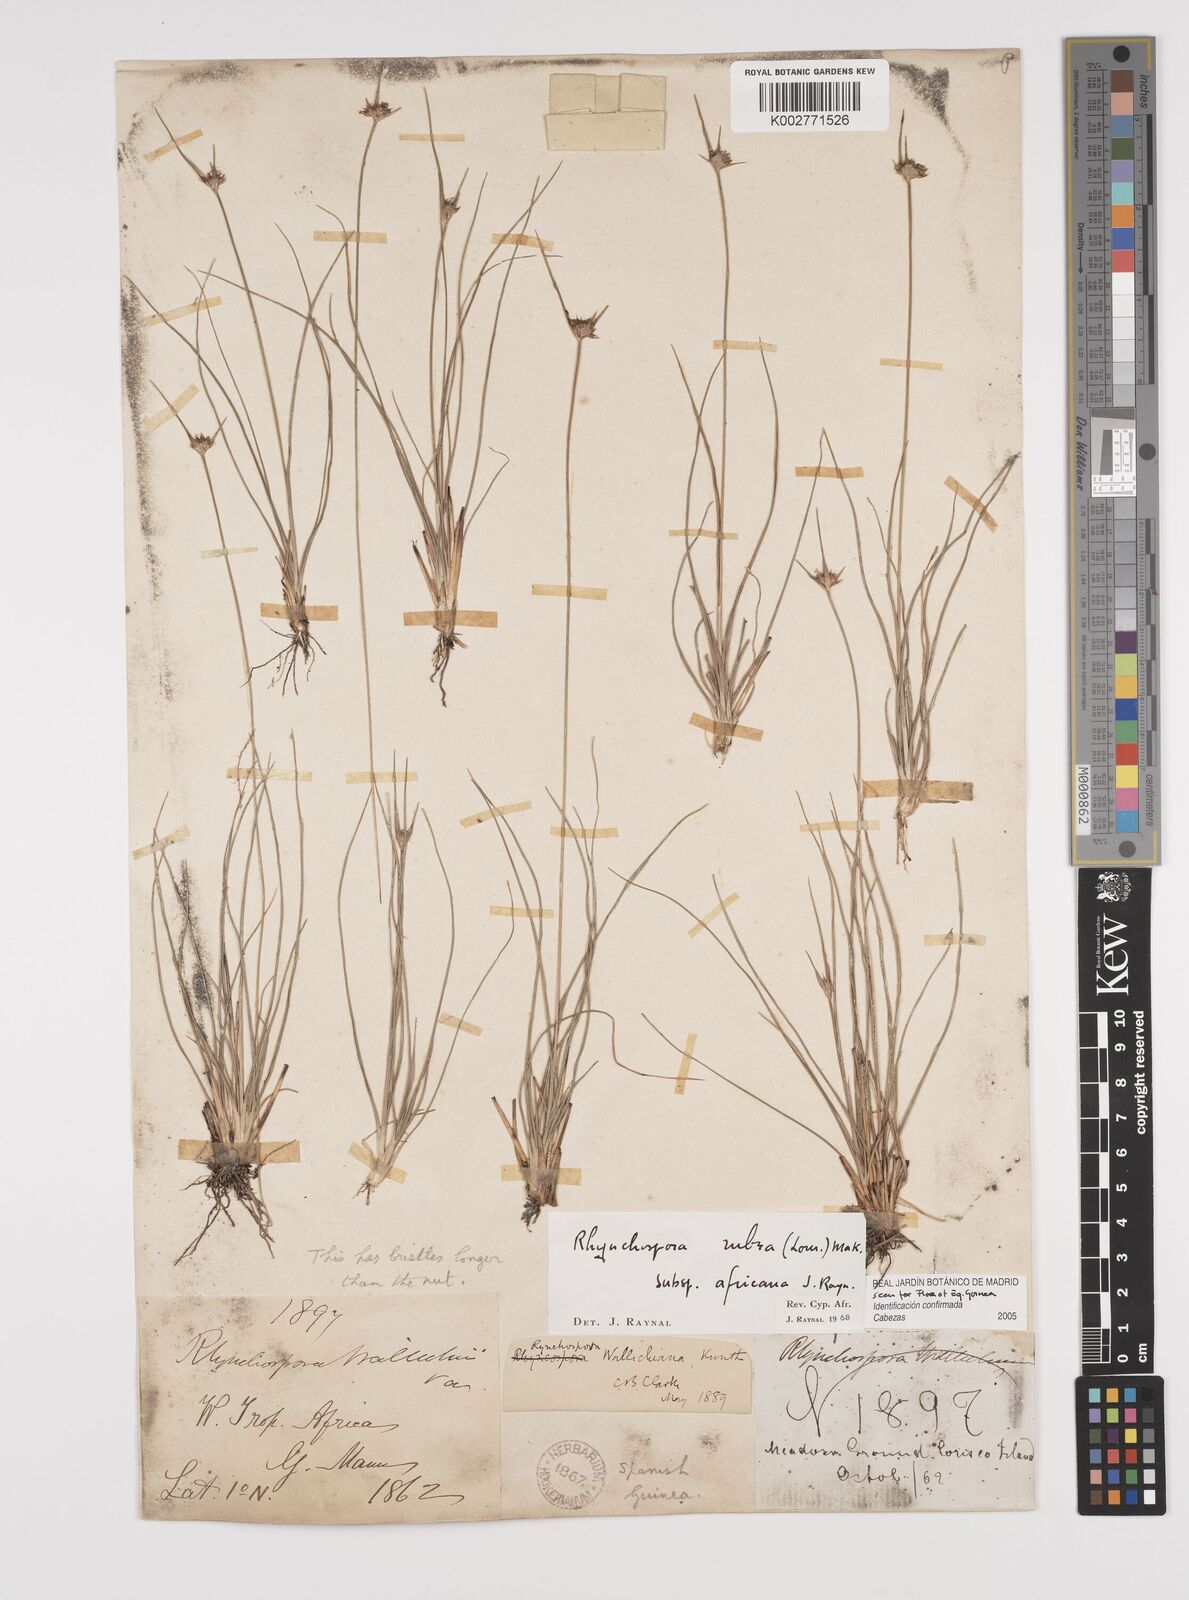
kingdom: Plantae
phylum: Tracheophyta
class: Liliopsida
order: Poales
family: Cyperaceae
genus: Rhynchospora
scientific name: Rhynchospora rubra
